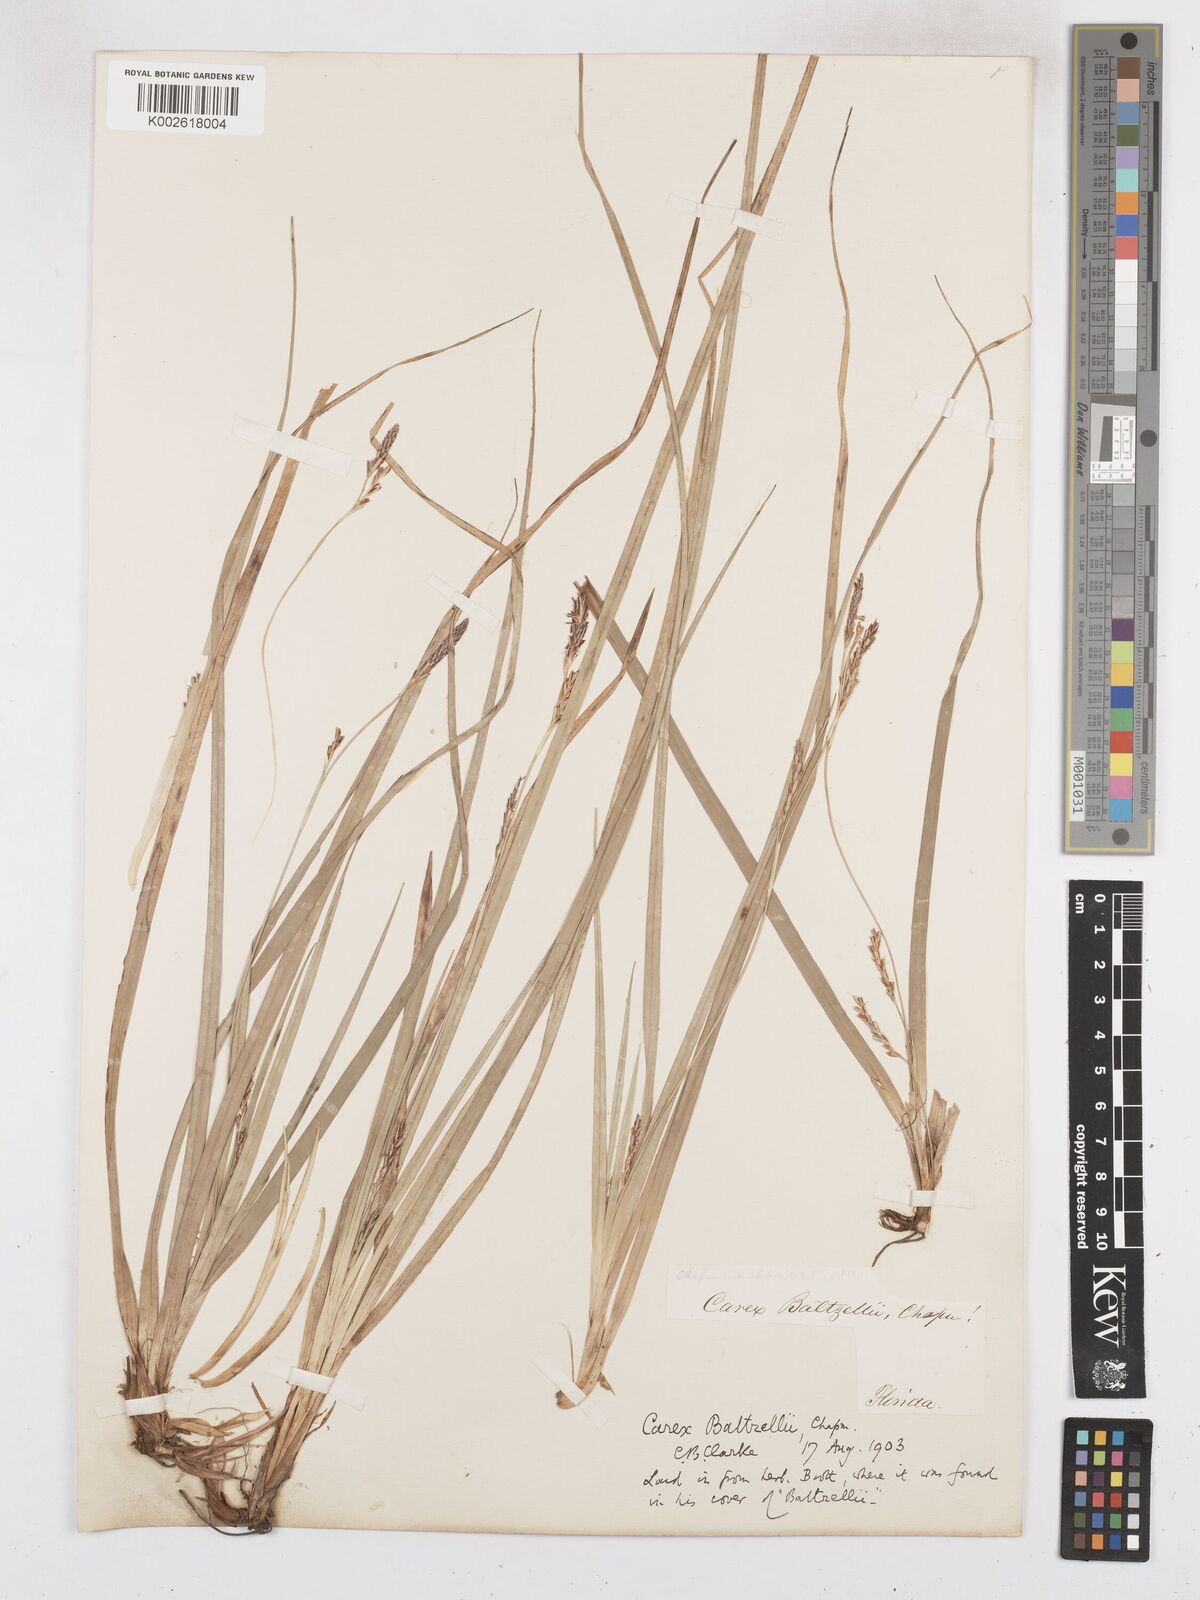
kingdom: Plantae
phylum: Tracheophyta
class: Liliopsida
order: Poales
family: Cyperaceae
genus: Carex
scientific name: Carex baltzellii
